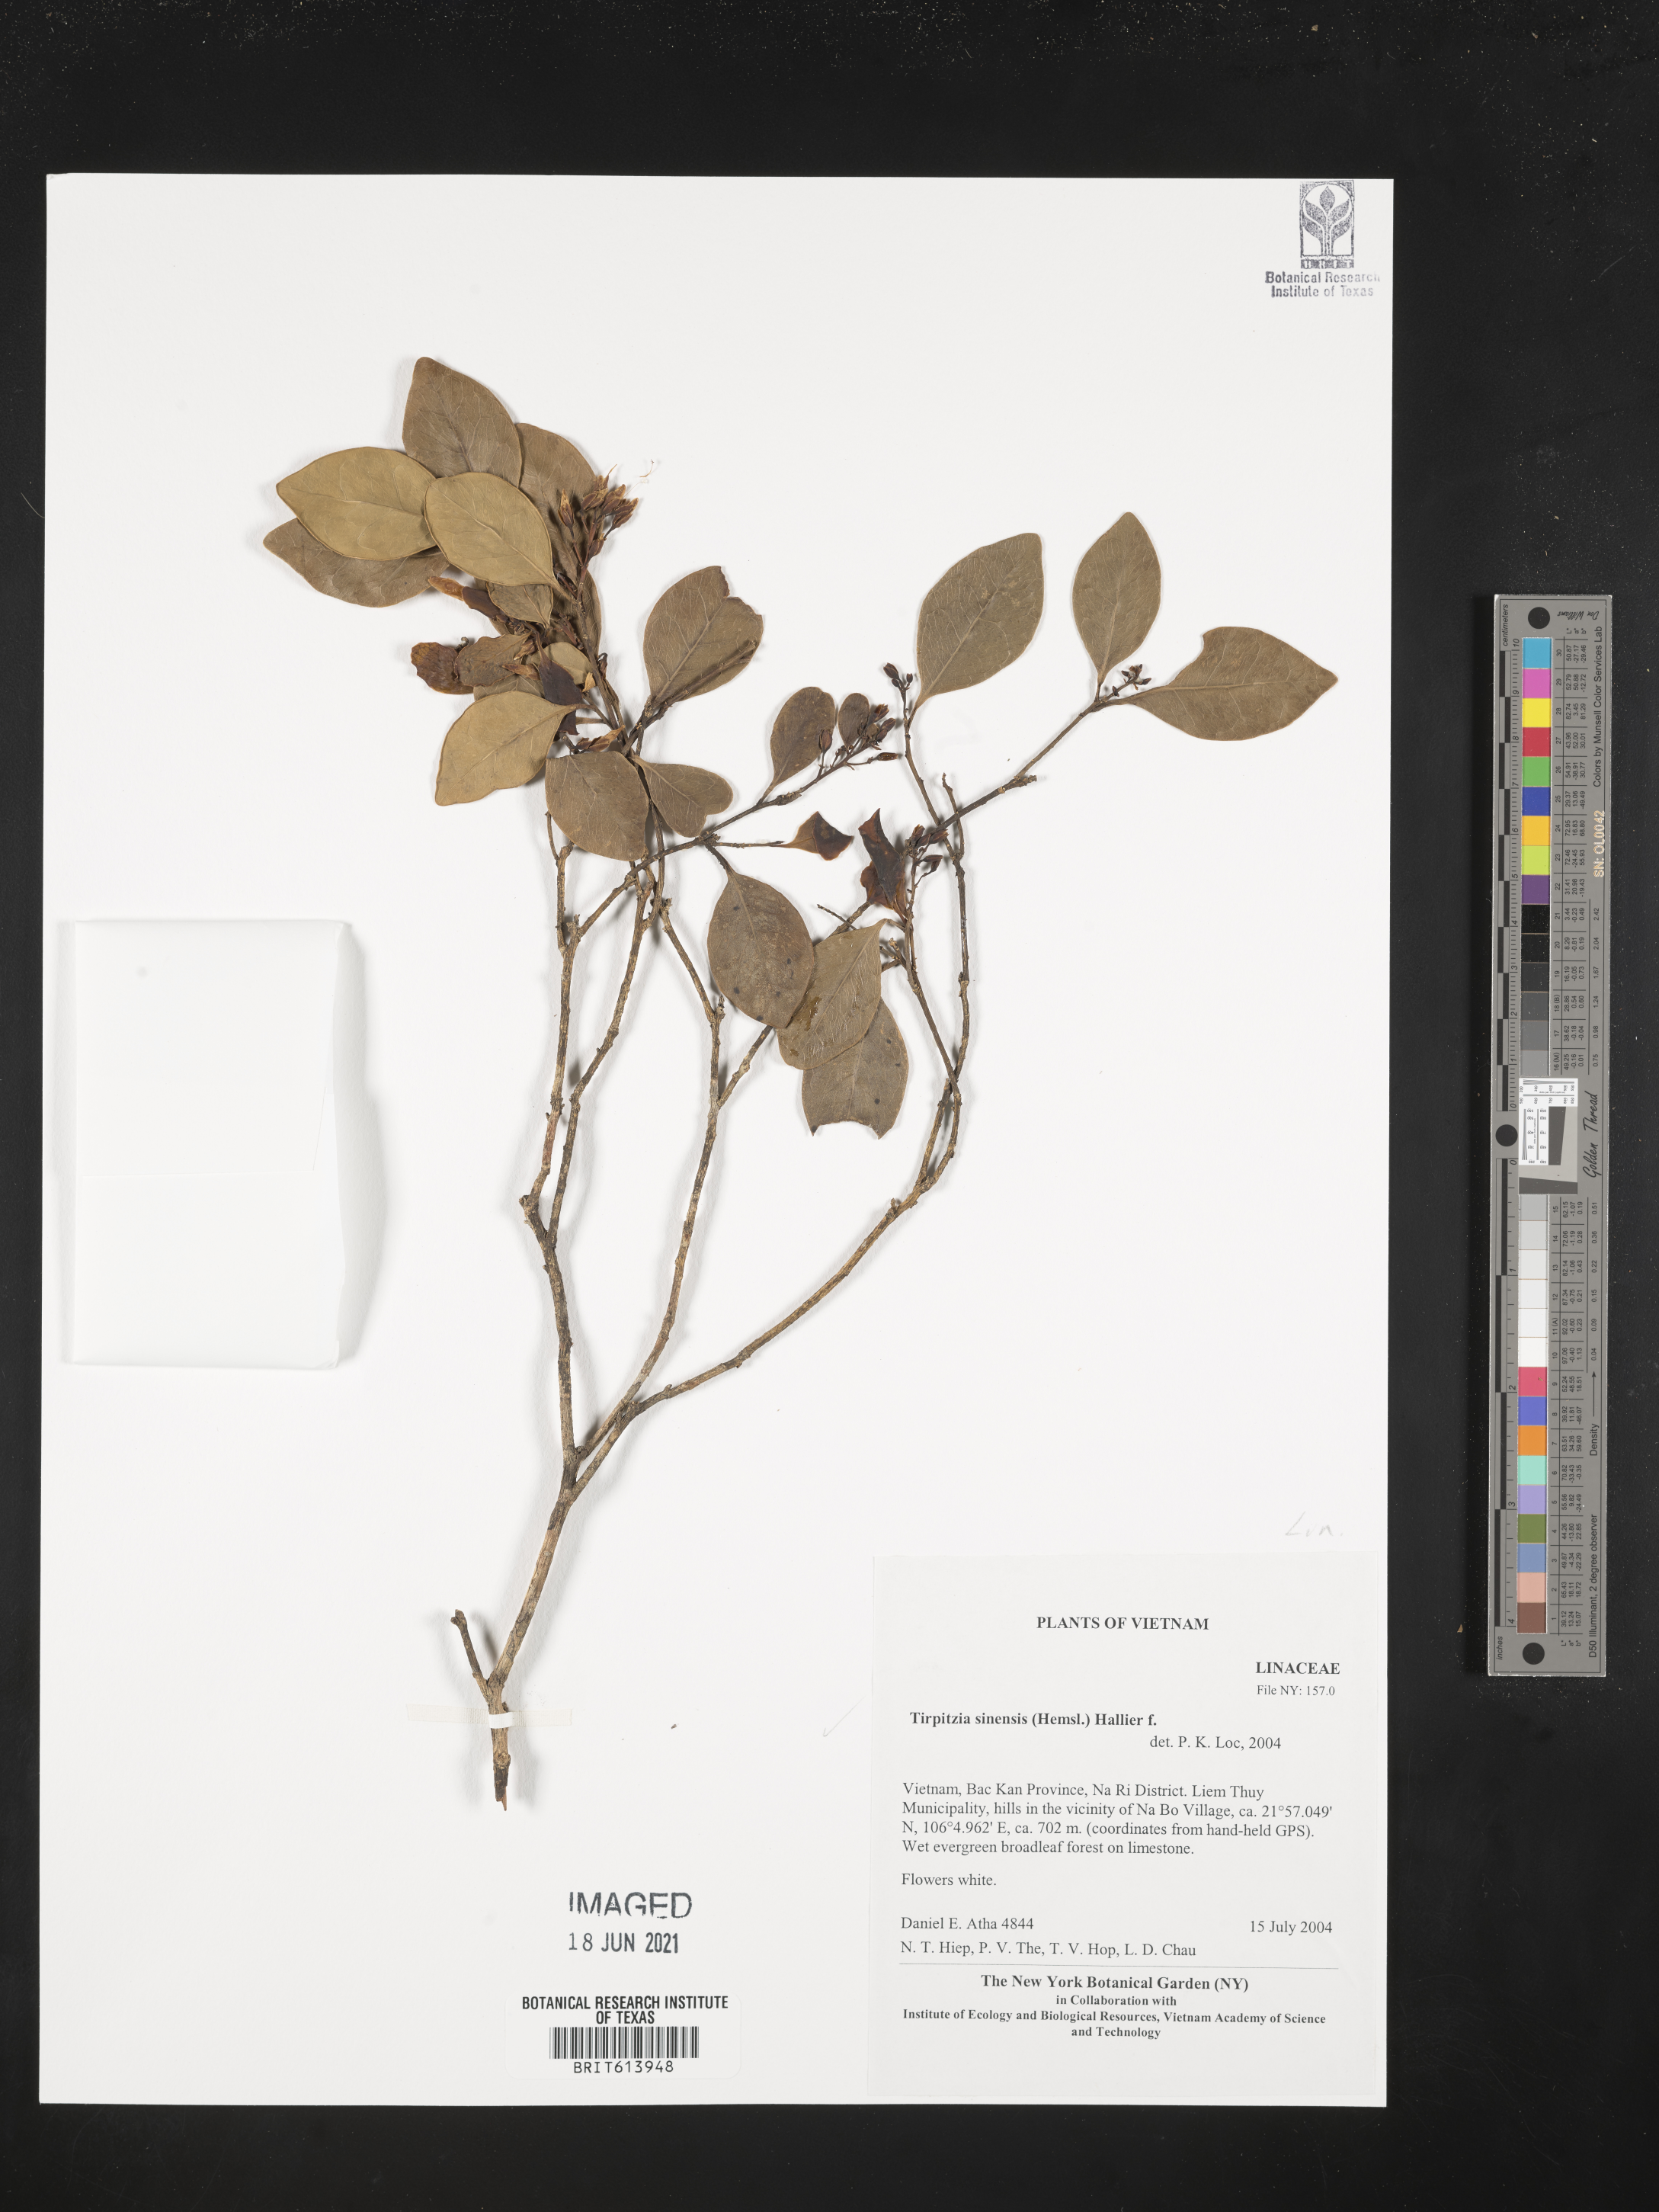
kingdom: Plantae
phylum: Tracheophyta
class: Magnoliopsida
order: Malpighiales
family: Linaceae
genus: Tirpitzia
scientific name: Tirpitzia sinensis
